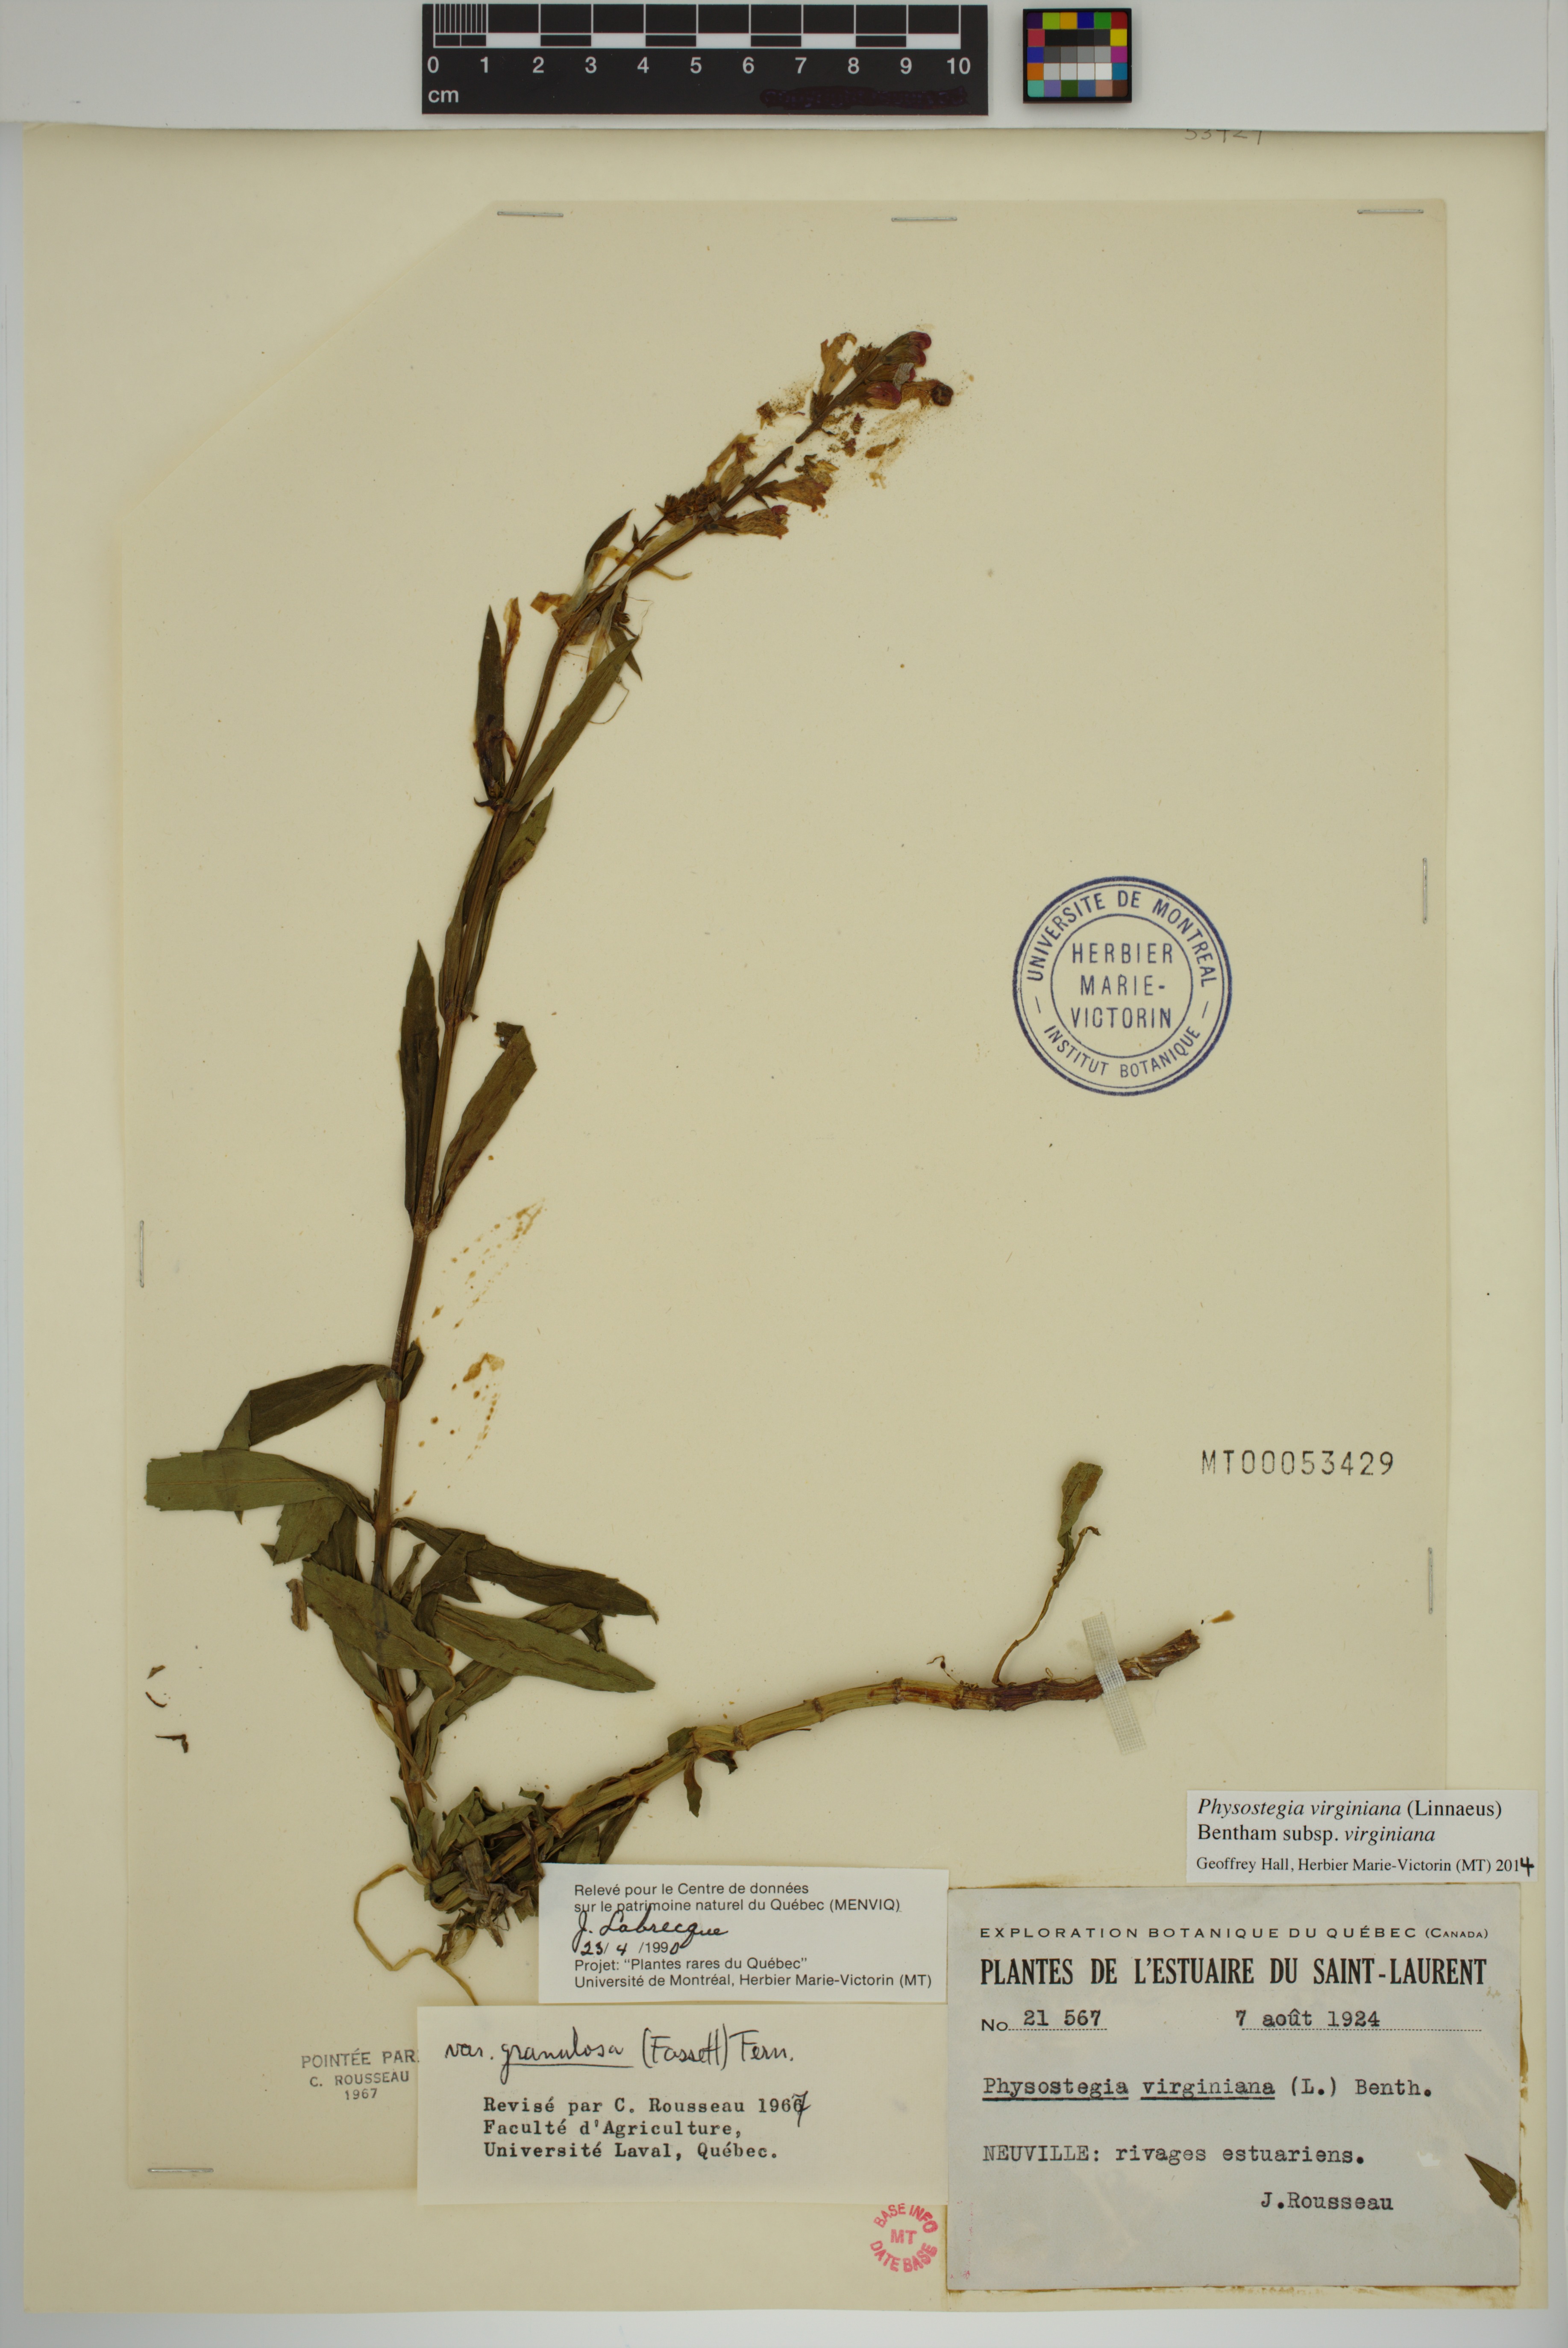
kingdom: Plantae
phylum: Tracheophyta
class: Magnoliopsida
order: Lamiales
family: Lamiaceae
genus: Physostegia
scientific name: Physostegia virginiana
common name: Obedient-plant
